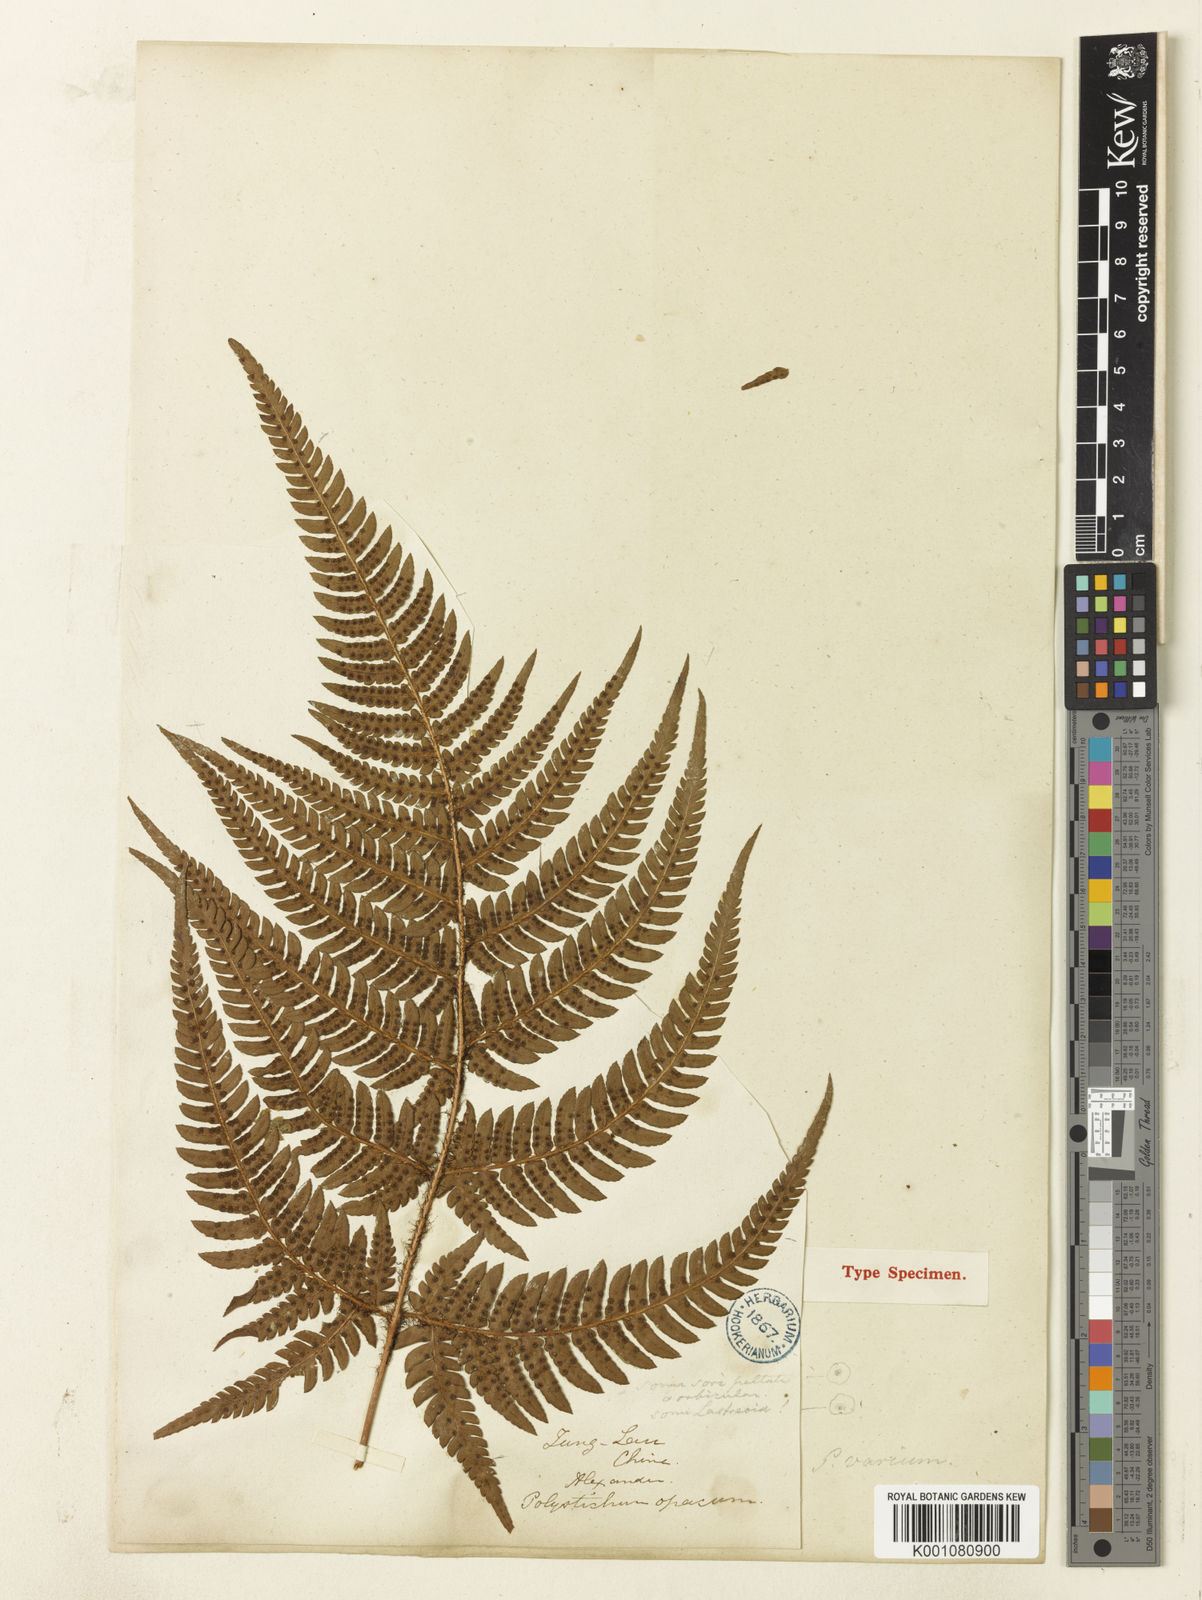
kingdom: Plantae
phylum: Tracheophyta
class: Polypodiopsida
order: Polypodiales
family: Dryopteridaceae
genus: Dryopteris
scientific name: Dryopteris varia
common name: Japanese holly fern
